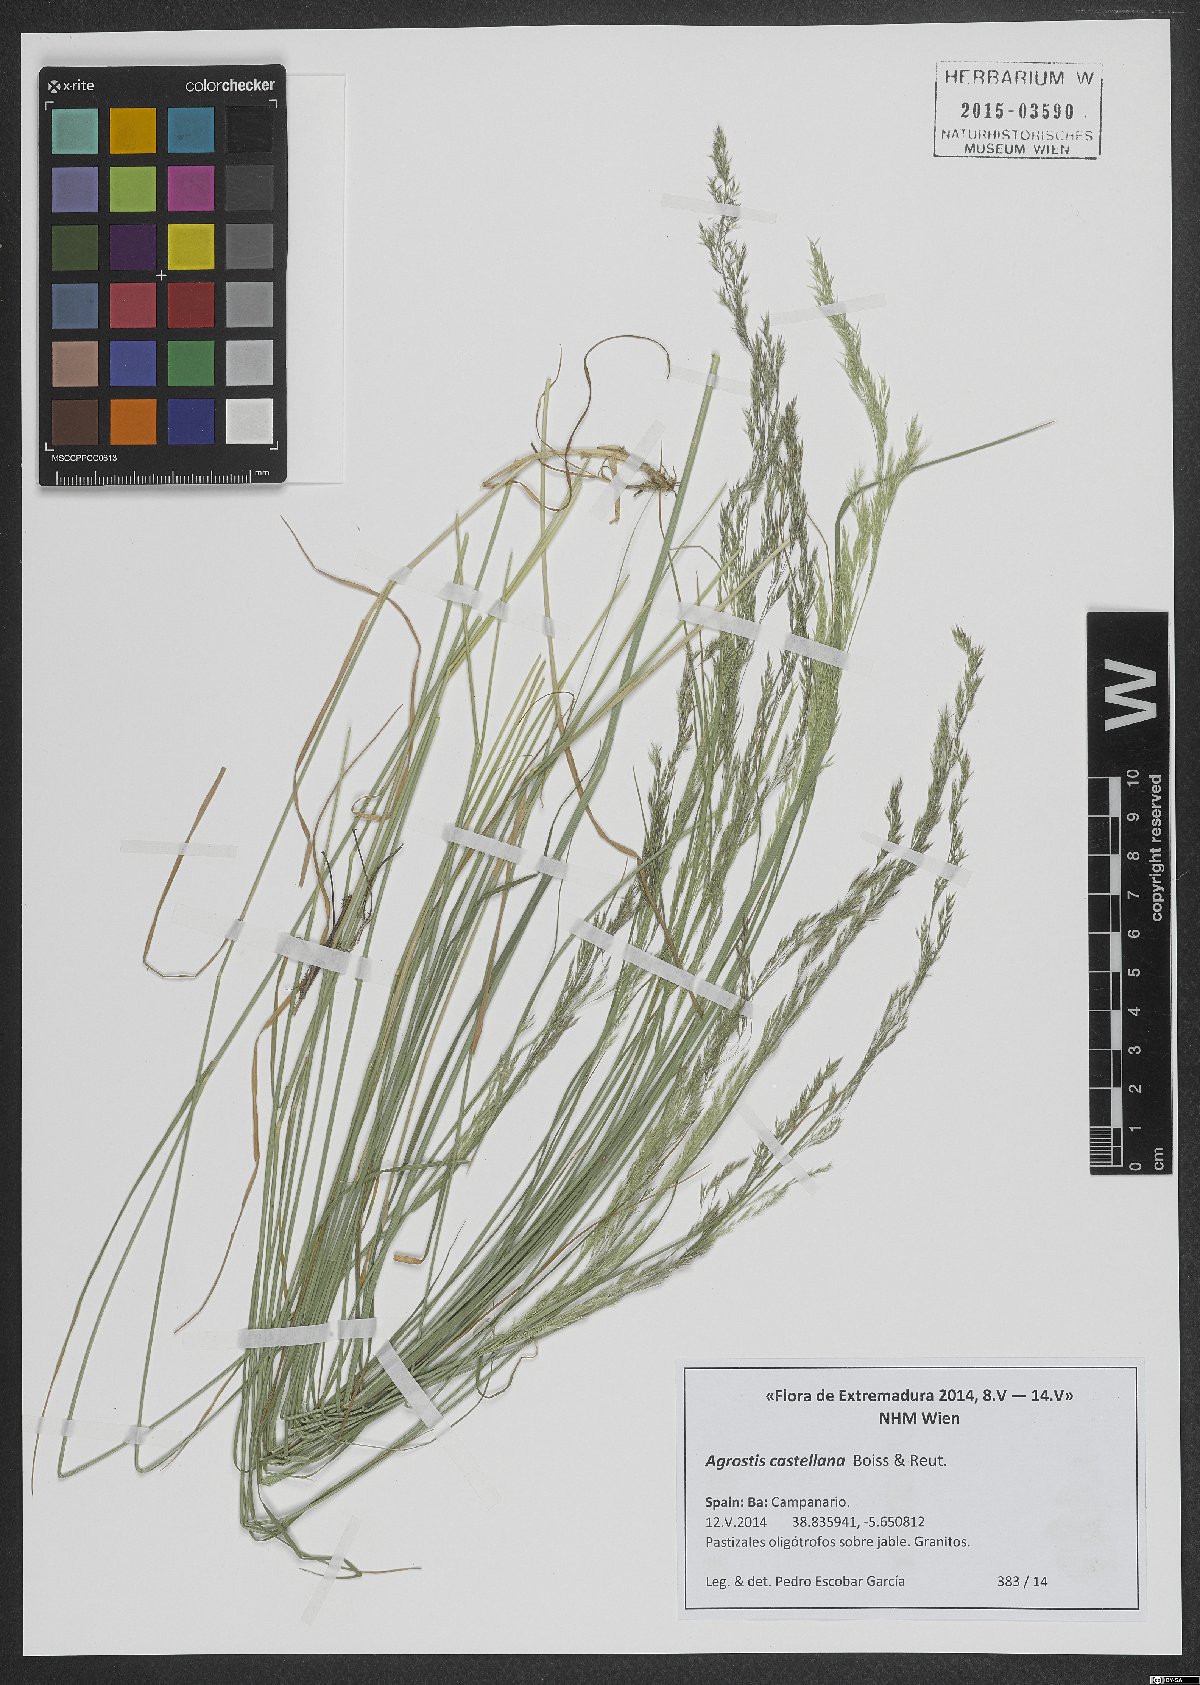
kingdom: Plantae
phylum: Tracheophyta
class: Liliopsida
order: Poales
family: Poaceae
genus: Agrostis
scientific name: Agrostis castellana
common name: Highland bent
